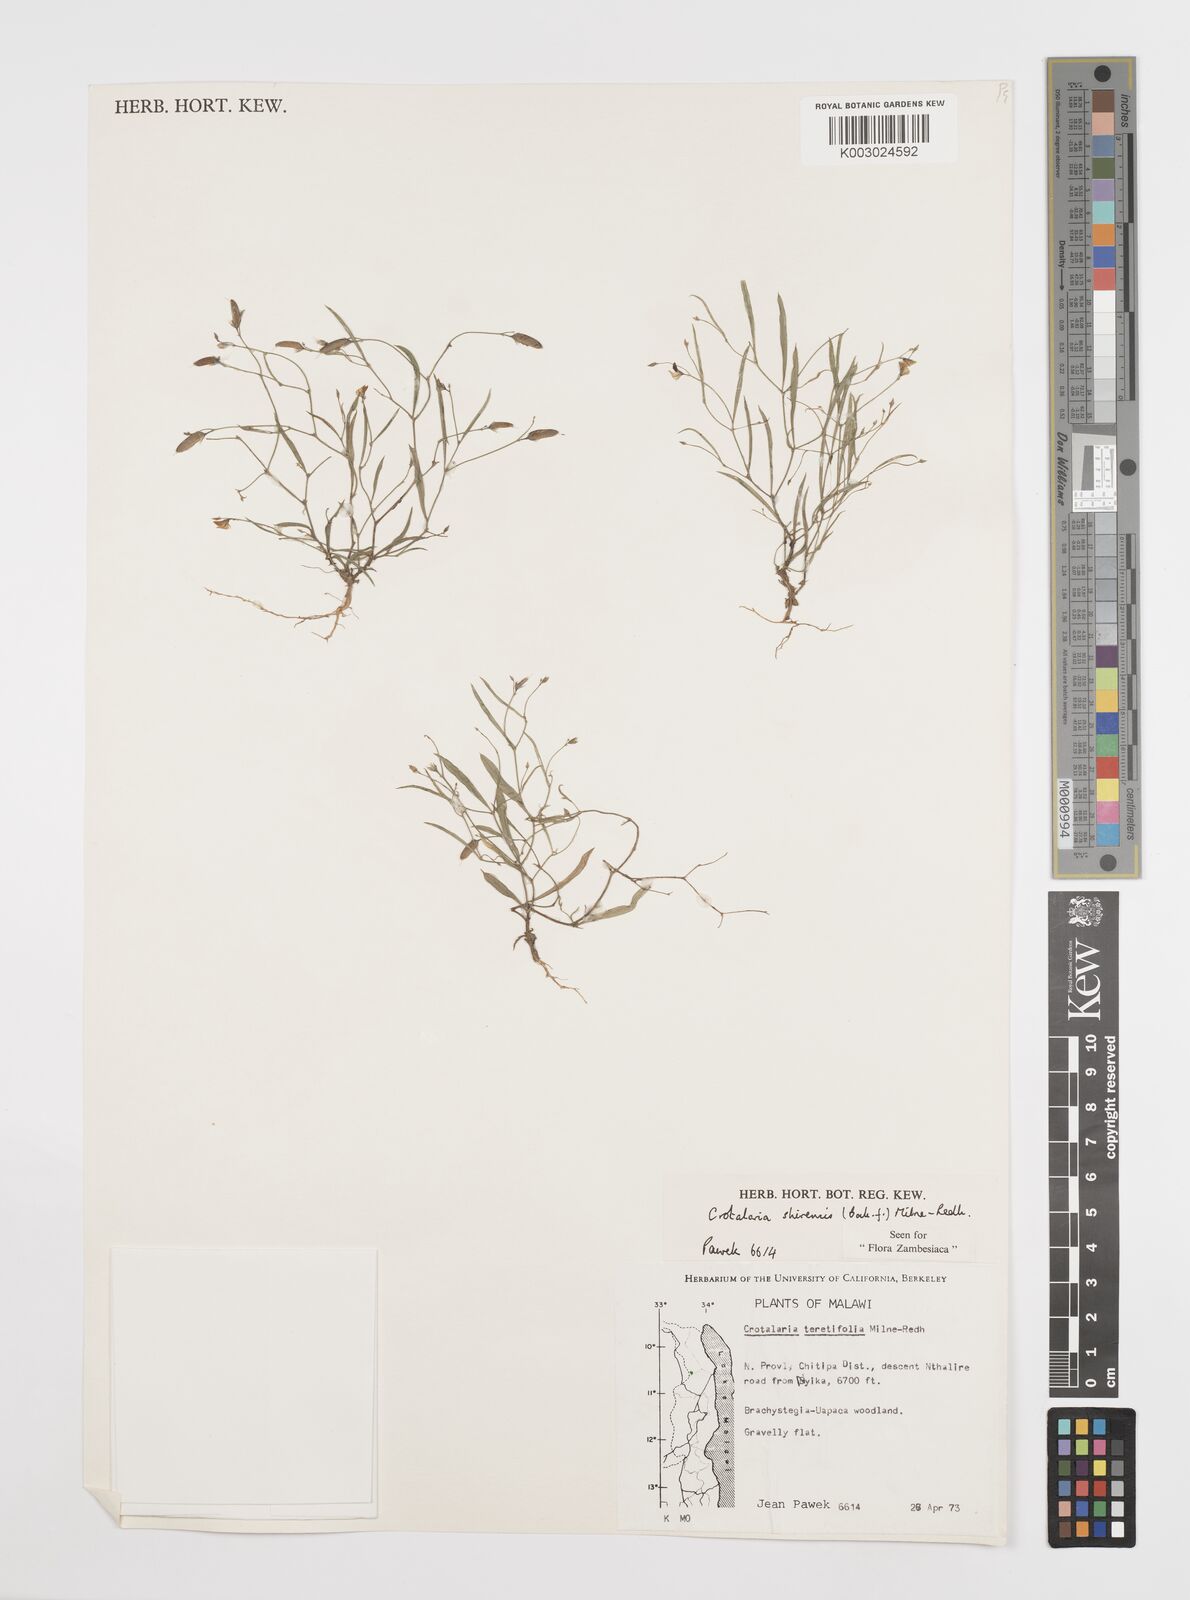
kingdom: Plantae
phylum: Tracheophyta
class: Magnoliopsida
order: Fabales
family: Fabaceae
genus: Crotalaria
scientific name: Crotalaria shirensis
